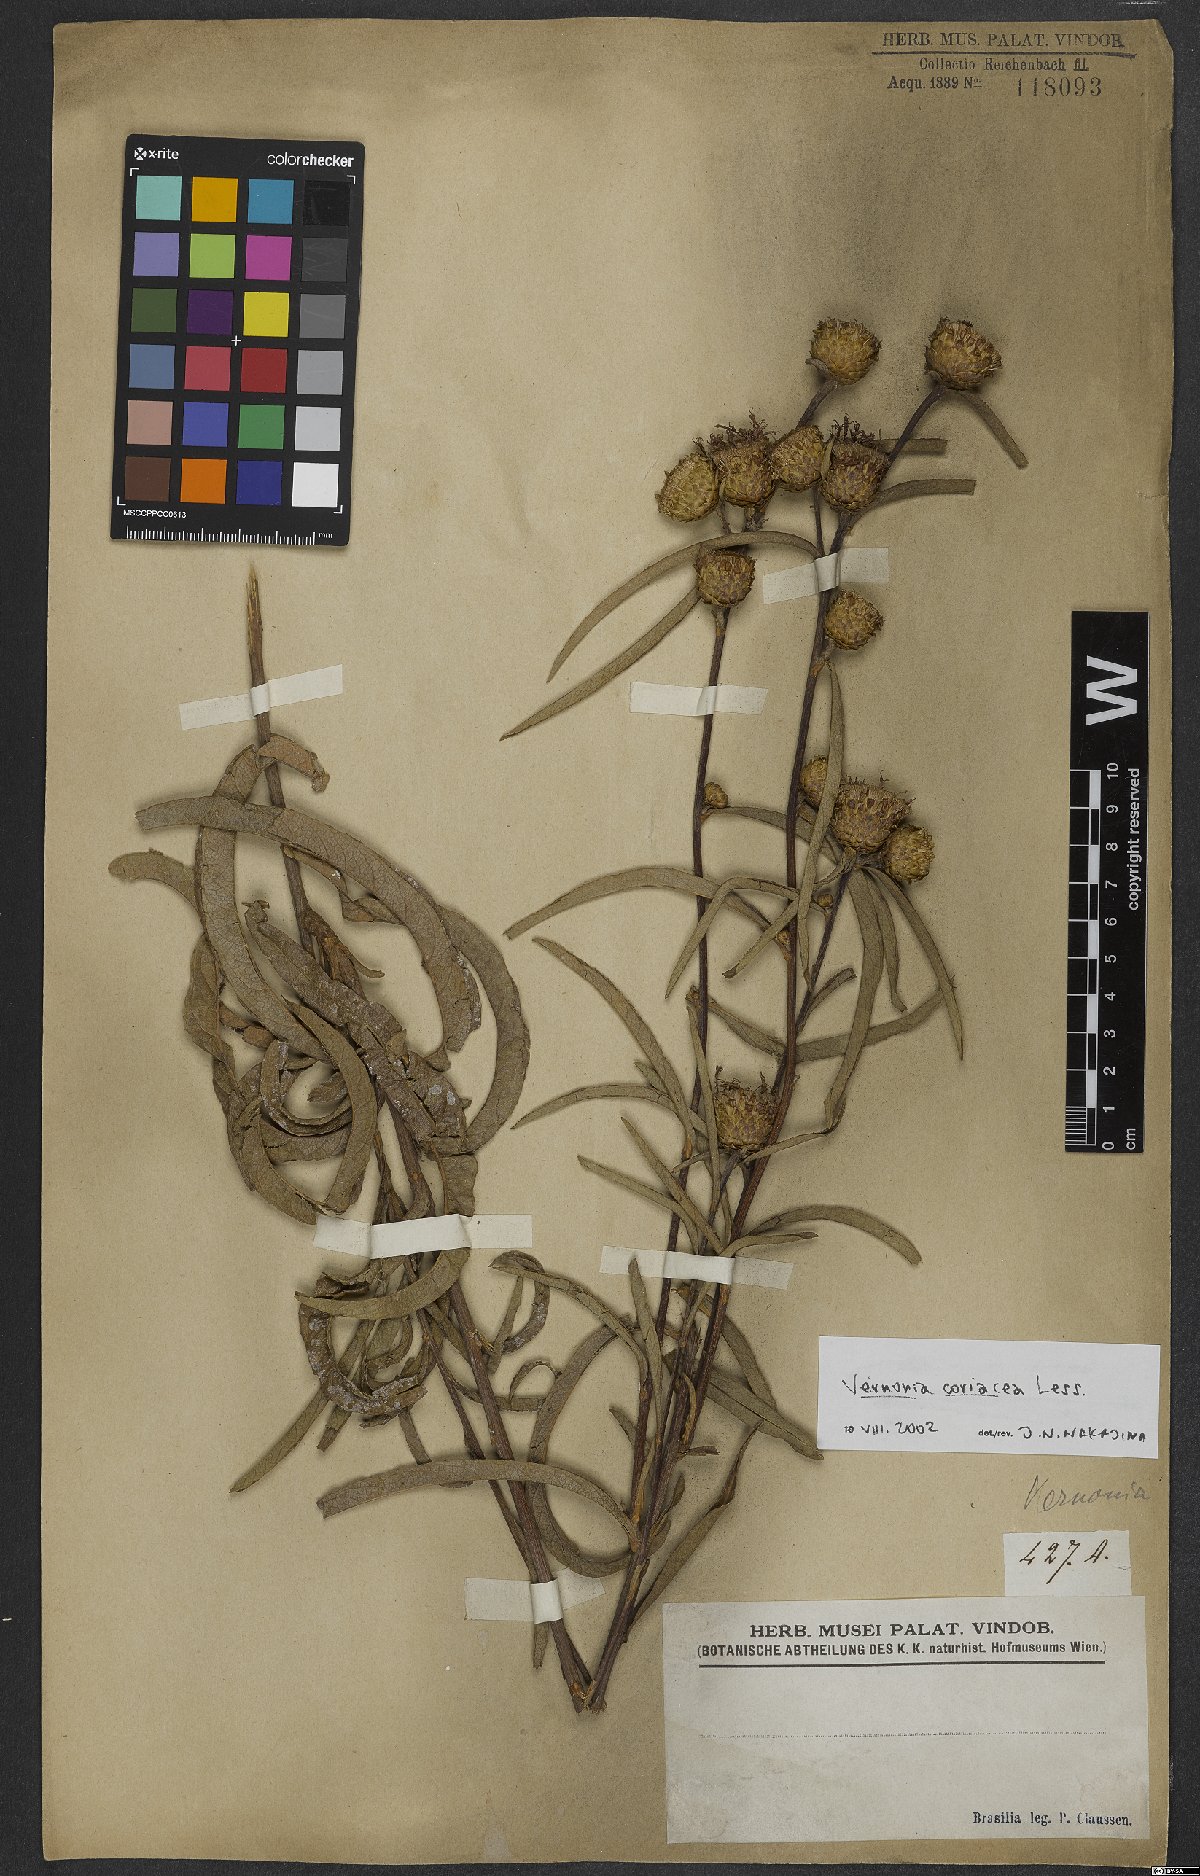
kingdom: Plantae
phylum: Tracheophyta
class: Magnoliopsida
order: Asterales
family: Asteraceae
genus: Lessingianthus
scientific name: Lessingianthus coriaceus
